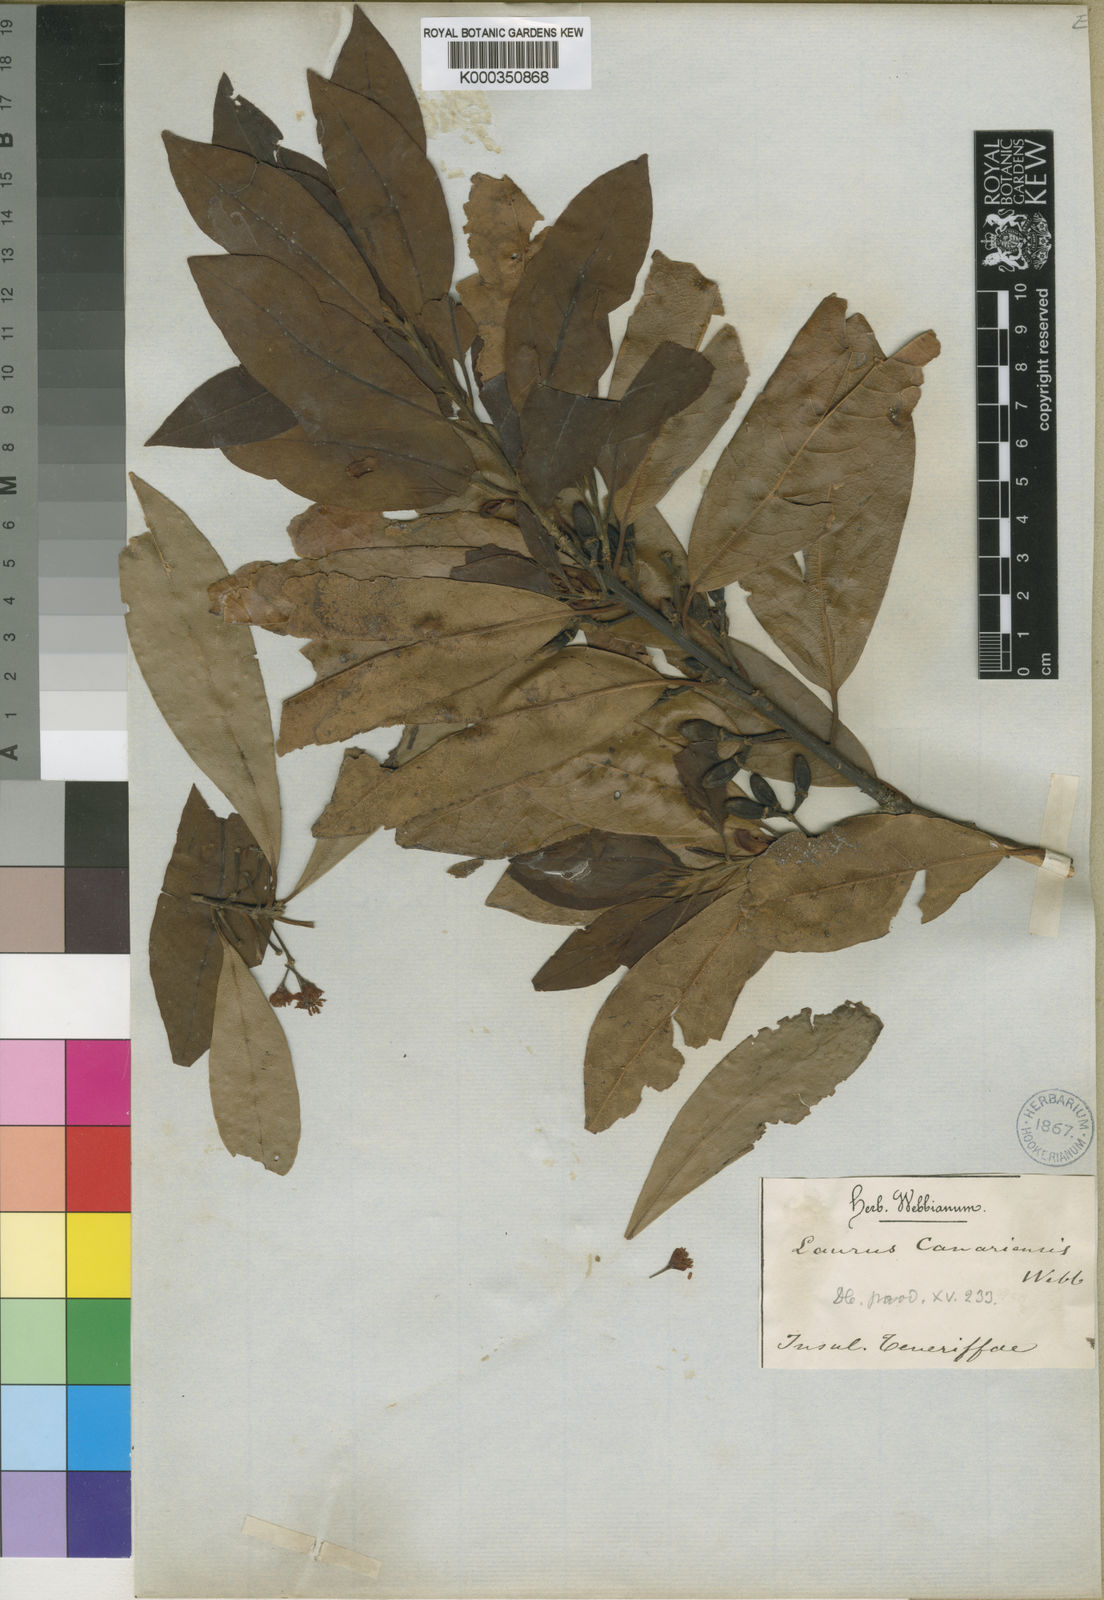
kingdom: Plantae
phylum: Tracheophyta
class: Magnoliopsida
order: Laurales
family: Lauraceae
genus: Laurus
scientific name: Laurus azorica
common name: Macaronesian laurel
